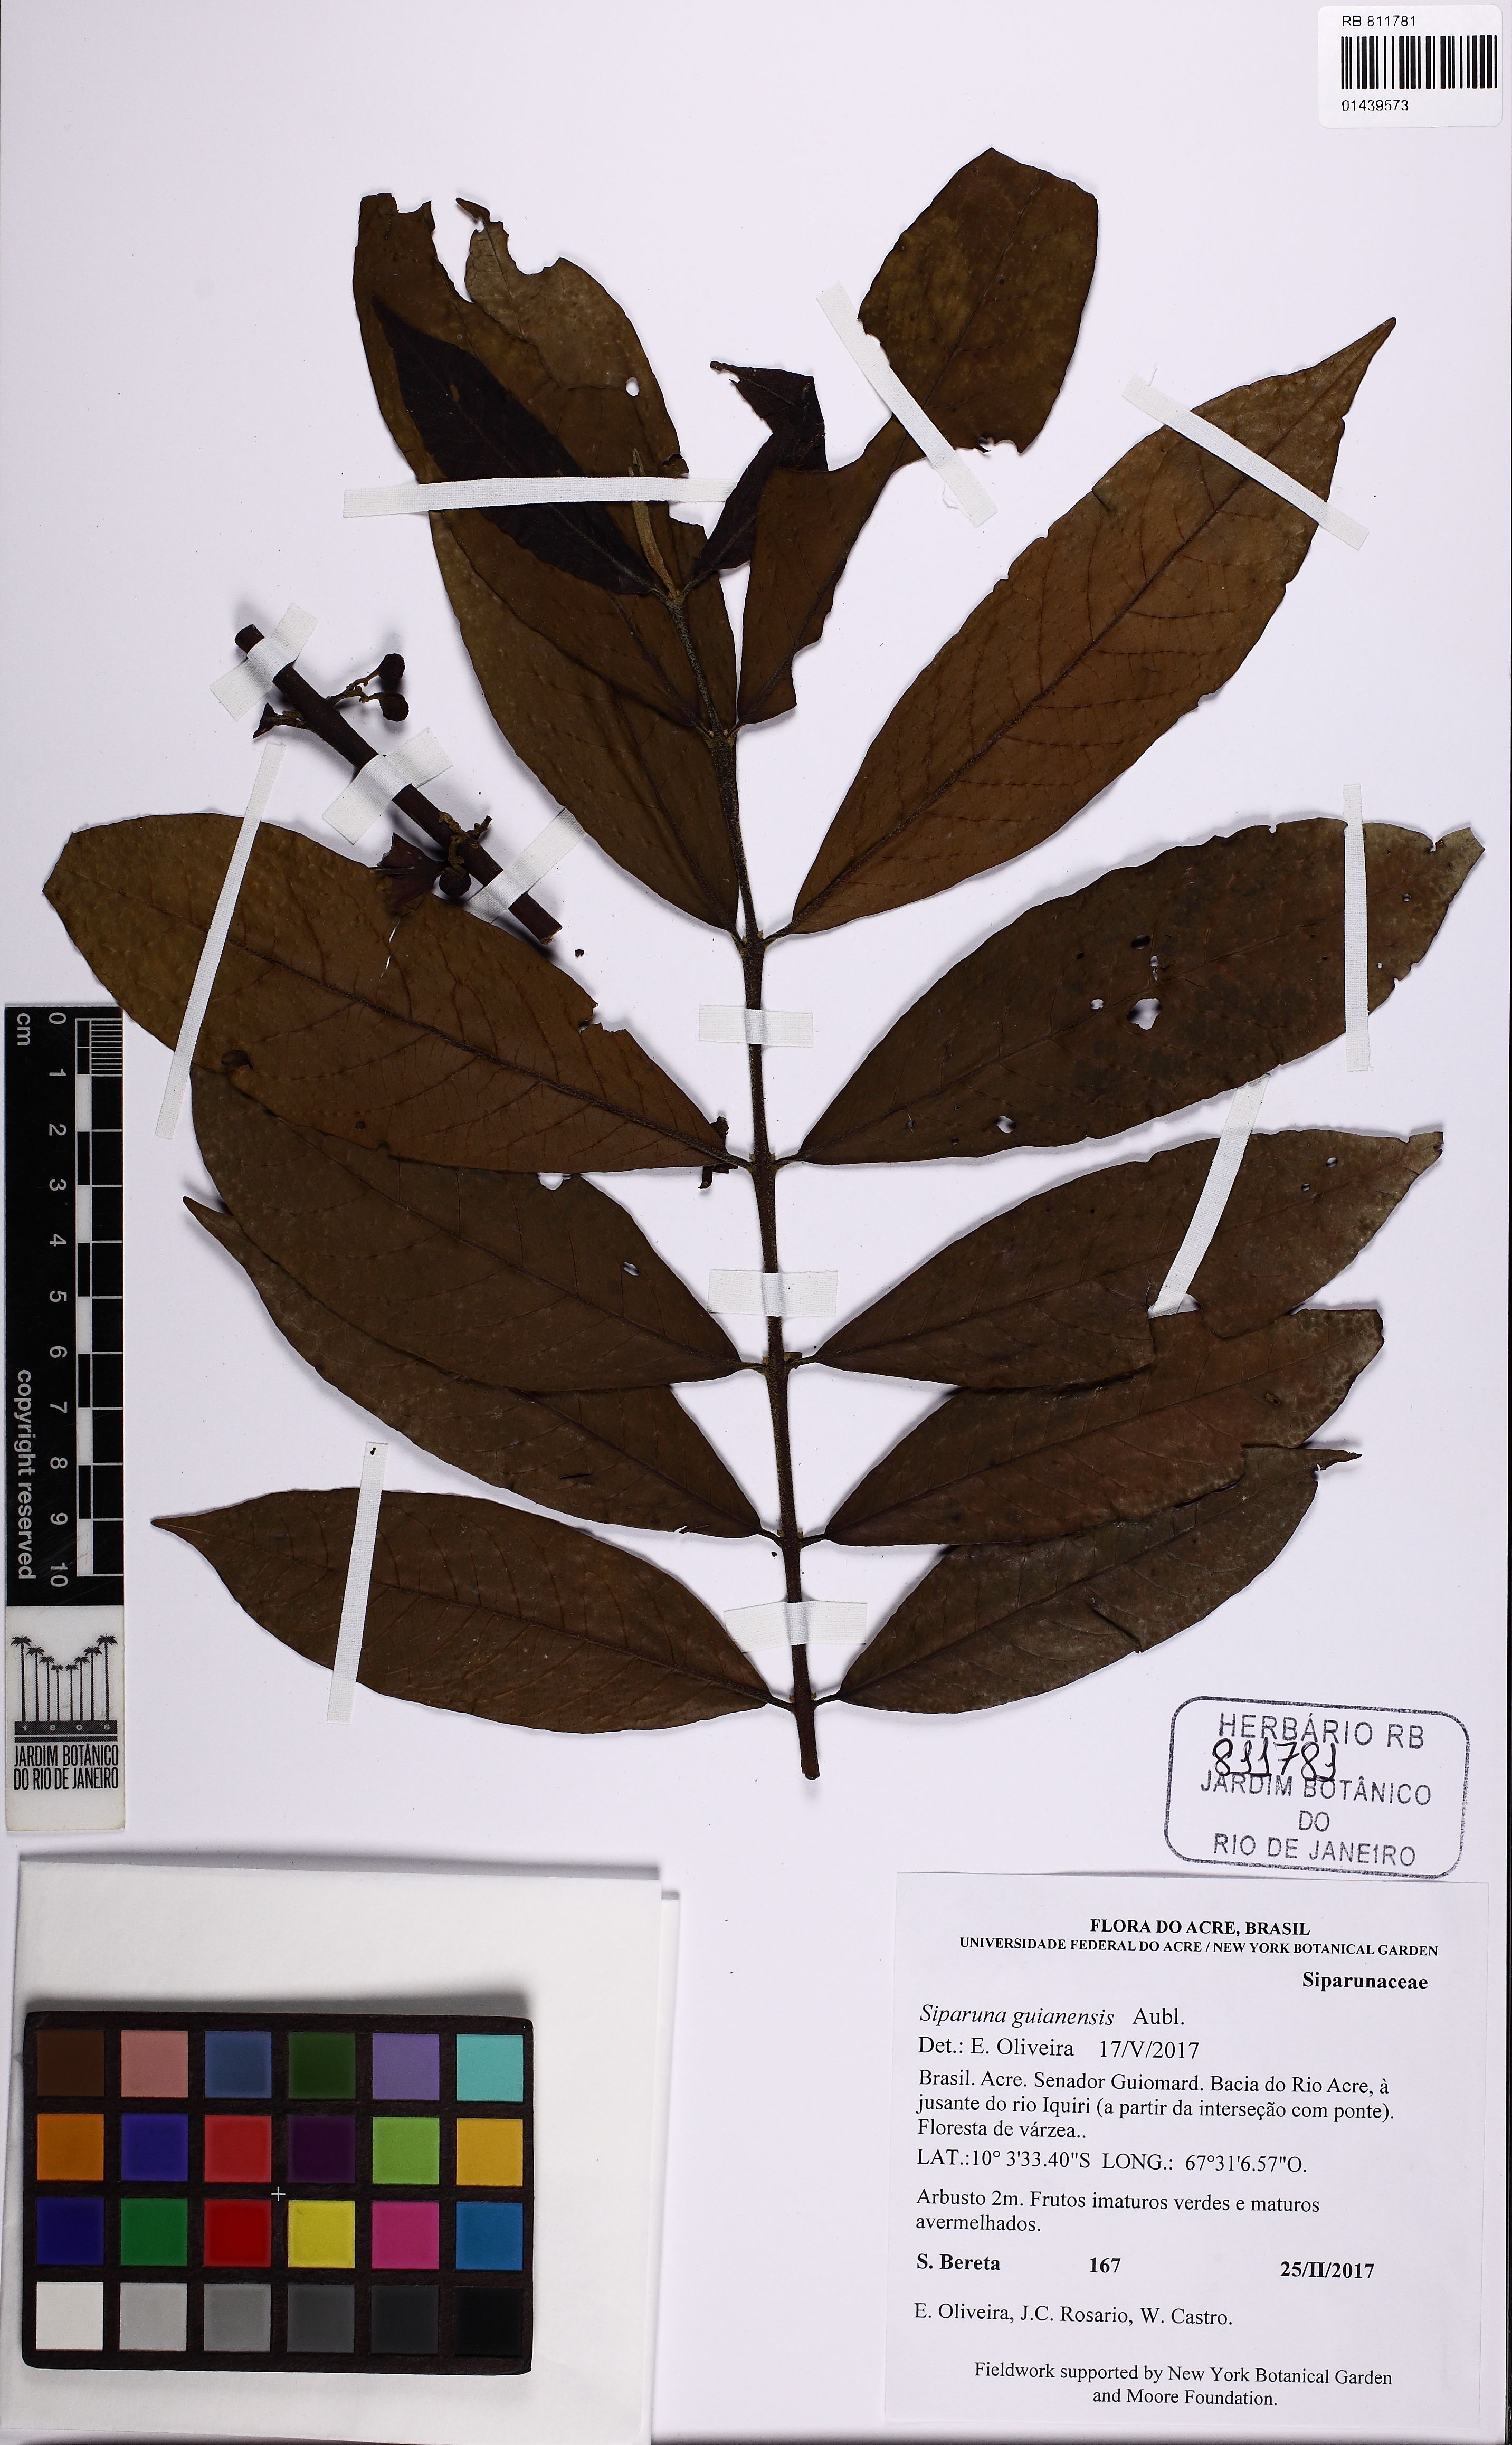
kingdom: Plantae
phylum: Tracheophyta
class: Magnoliopsida
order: Laurales
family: Siparunaceae
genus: Siparuna
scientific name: Siparuna guianensis
